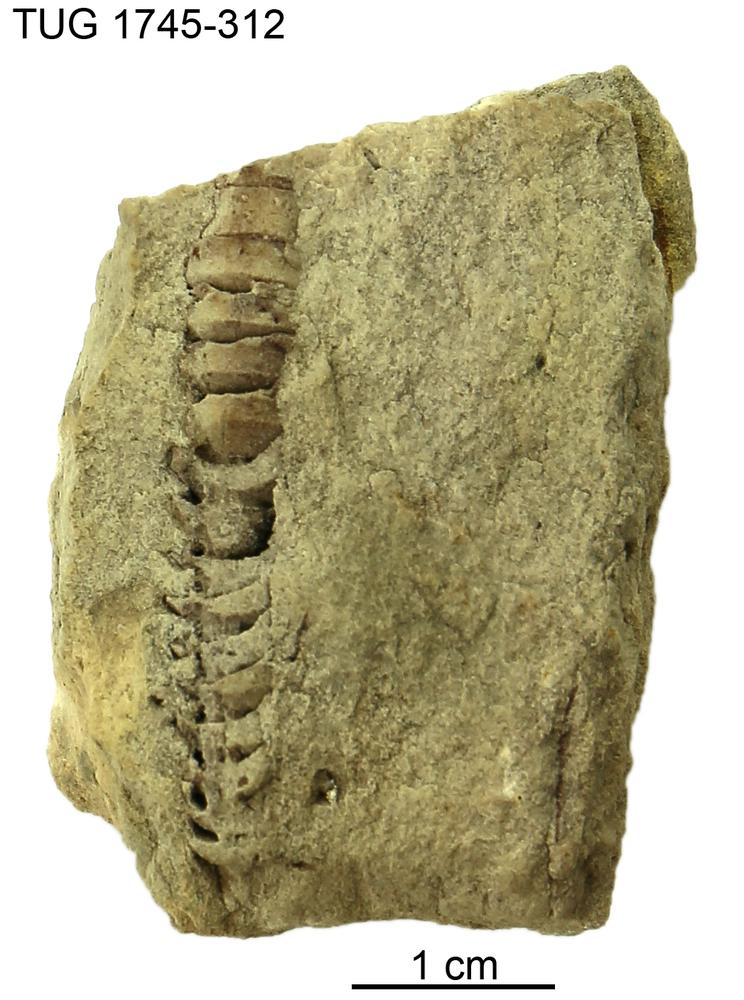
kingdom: Animalia
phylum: Mollusca
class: Cephalopoda
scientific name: Cephalopoda
